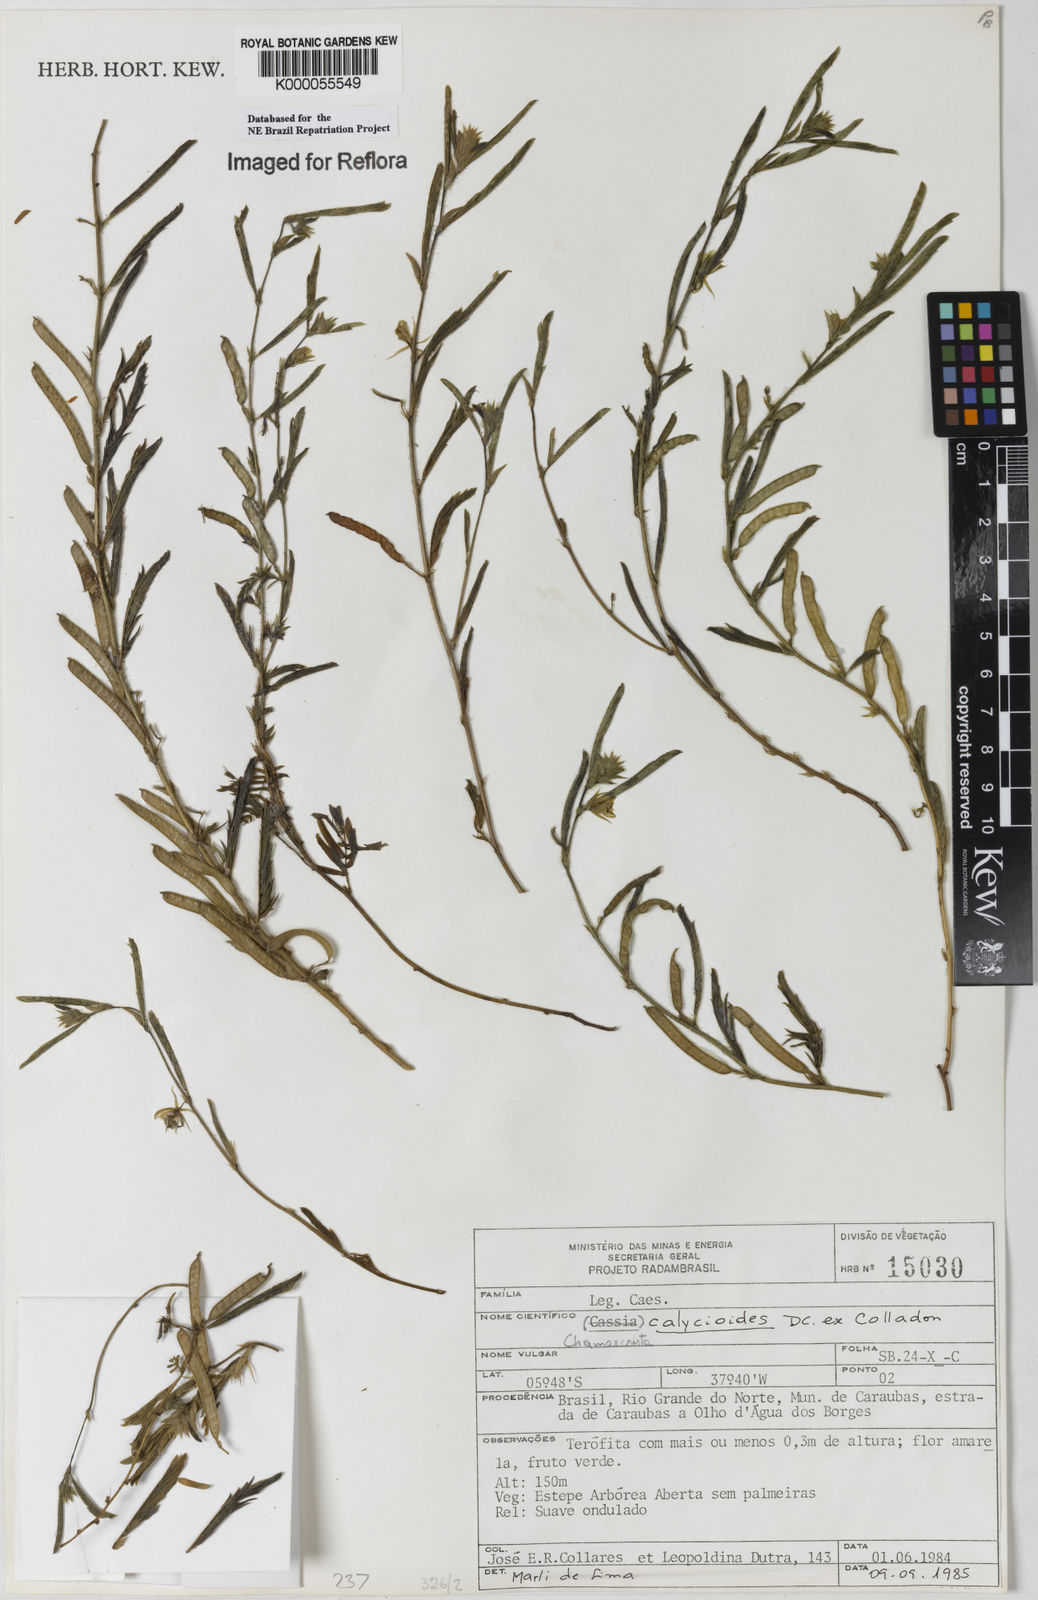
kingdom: Plantae
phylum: Tracheophyta
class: Magnoliopsida
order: Fabales
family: Fabaceae
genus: Chamaecrista
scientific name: Chamaecrista calycioides
